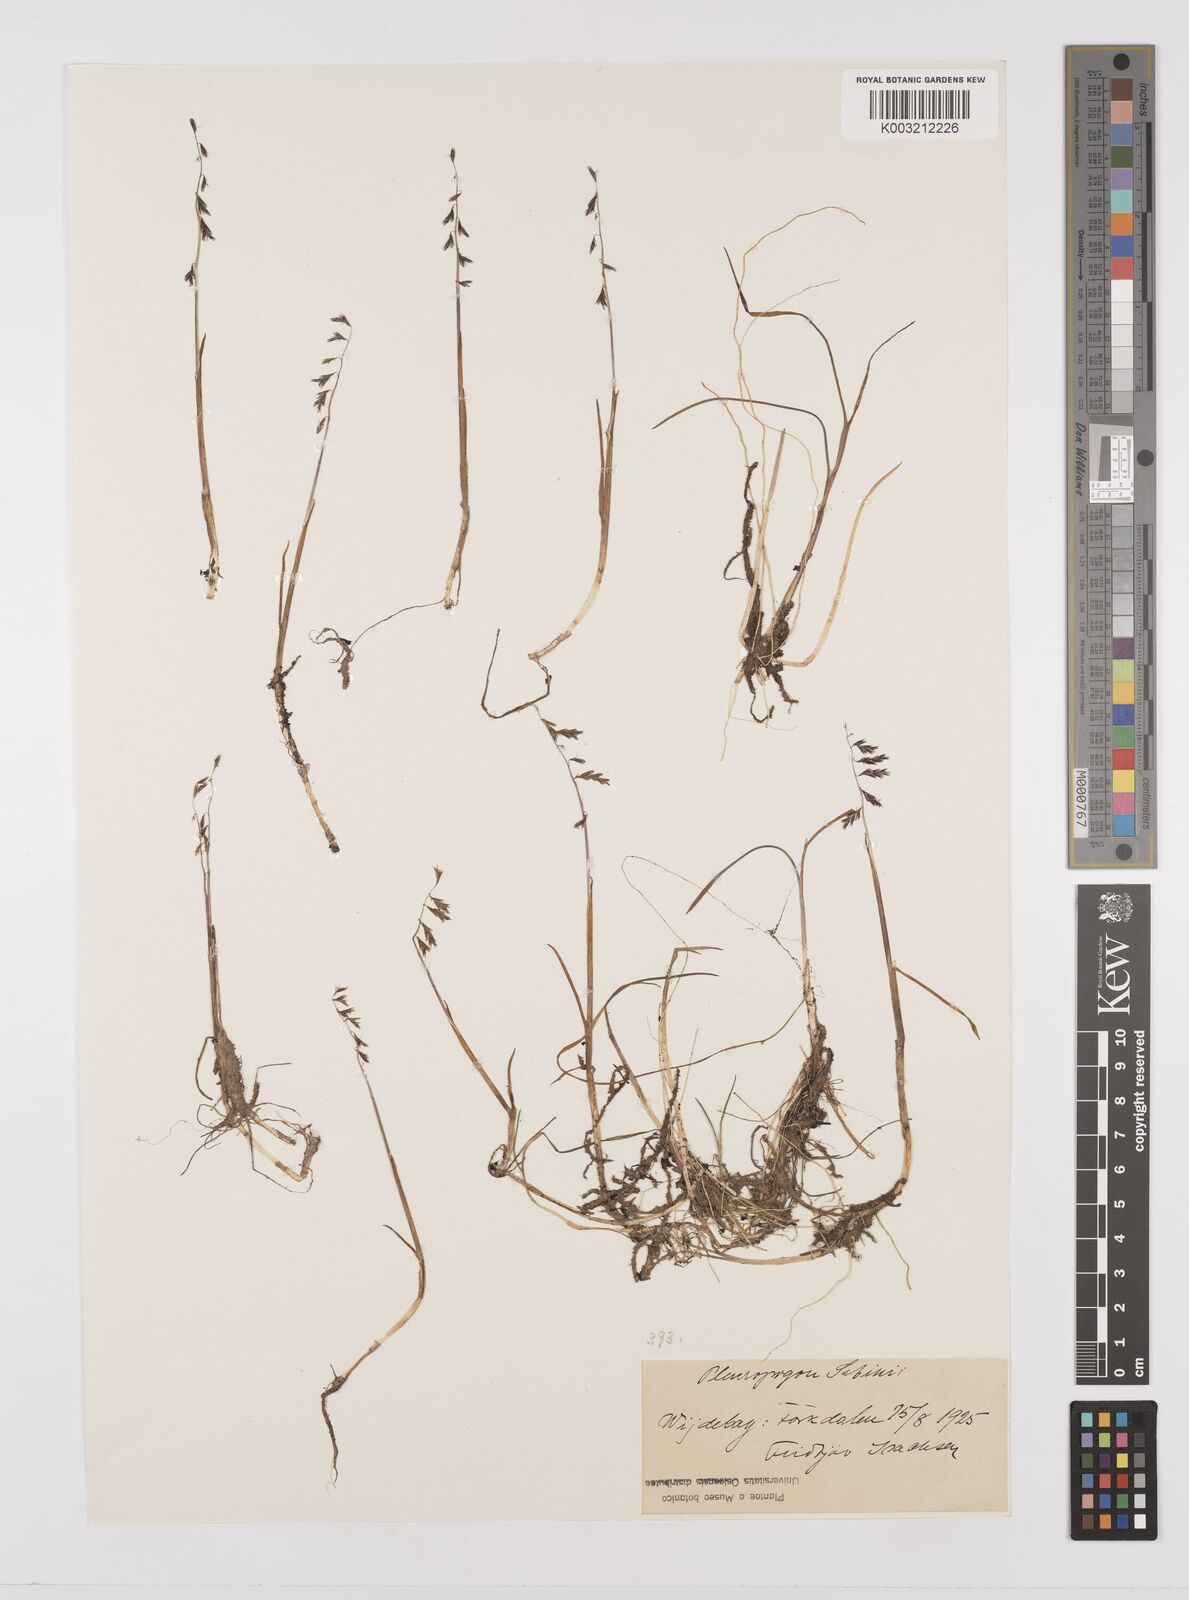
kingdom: Plantae
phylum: Tracheophyta
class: Liliopsida
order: Poales
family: Poaceae
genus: Pleuropogon
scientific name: Pleuropogon sabinei
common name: Sabine's false semaphoregrass
